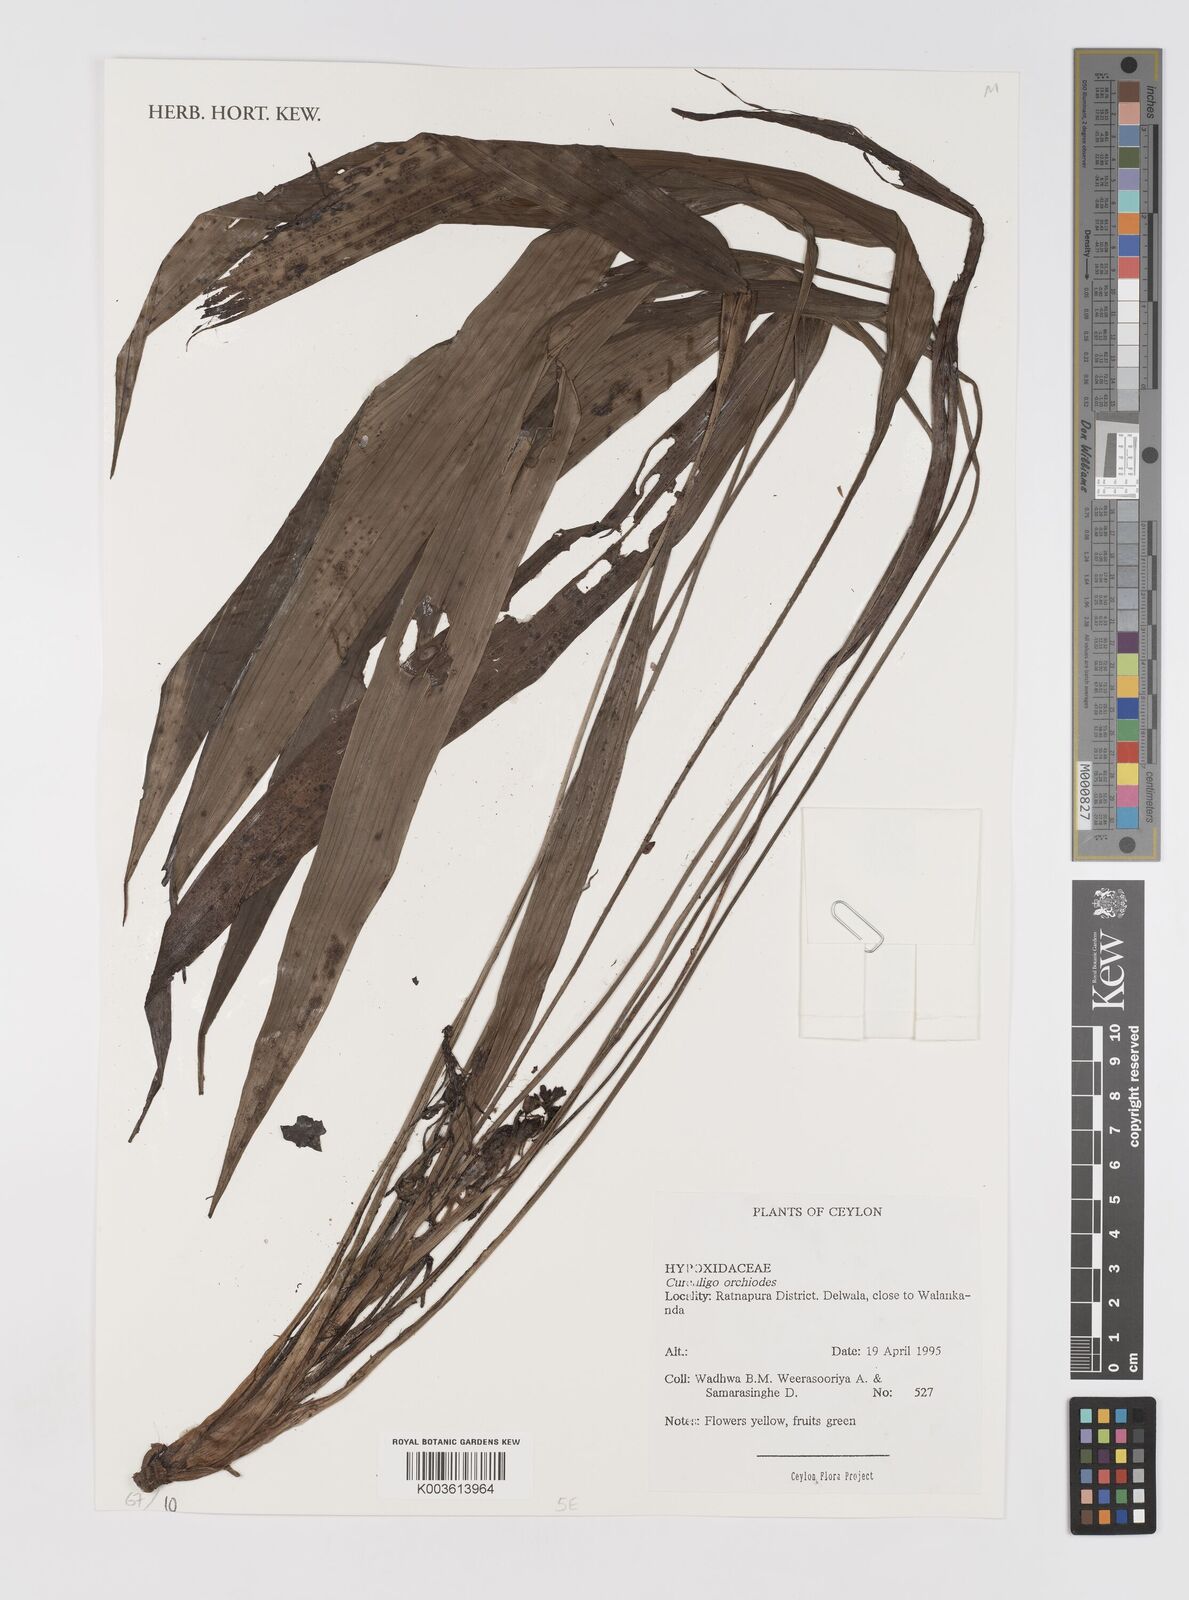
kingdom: Plantae
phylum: Tracheophyta
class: Liliopsida
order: Asparagales
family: Hypoxidaceae
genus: Curculigo
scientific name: Curculigo orchioides
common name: Golden eye-grass
